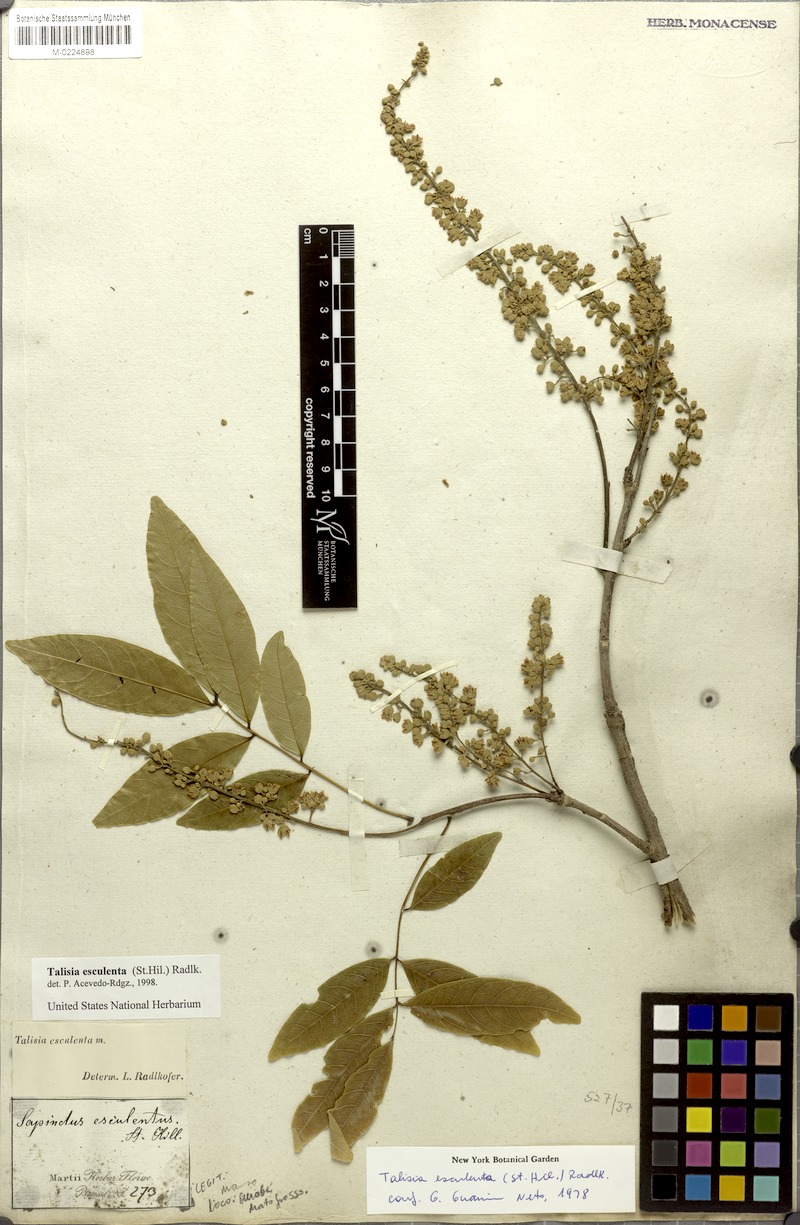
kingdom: Plantae
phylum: Tracheophyta
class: Magnoliopsida
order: Sapindales
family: Sapindaceae
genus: Talisia
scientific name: Talisia esculenta
